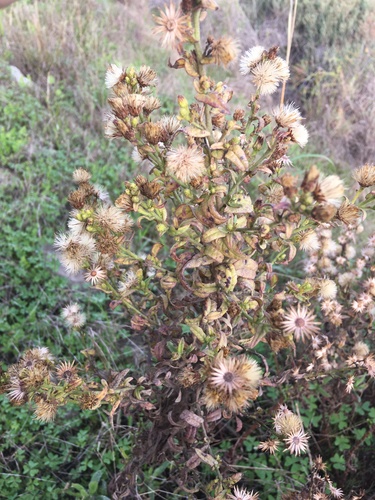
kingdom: Plantae
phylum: Tracheophyta
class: Magnoliopsida
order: Asterales
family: Asteraceae
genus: Dittrichia
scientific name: Dittrichia viscosa
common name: Woody fleabane
